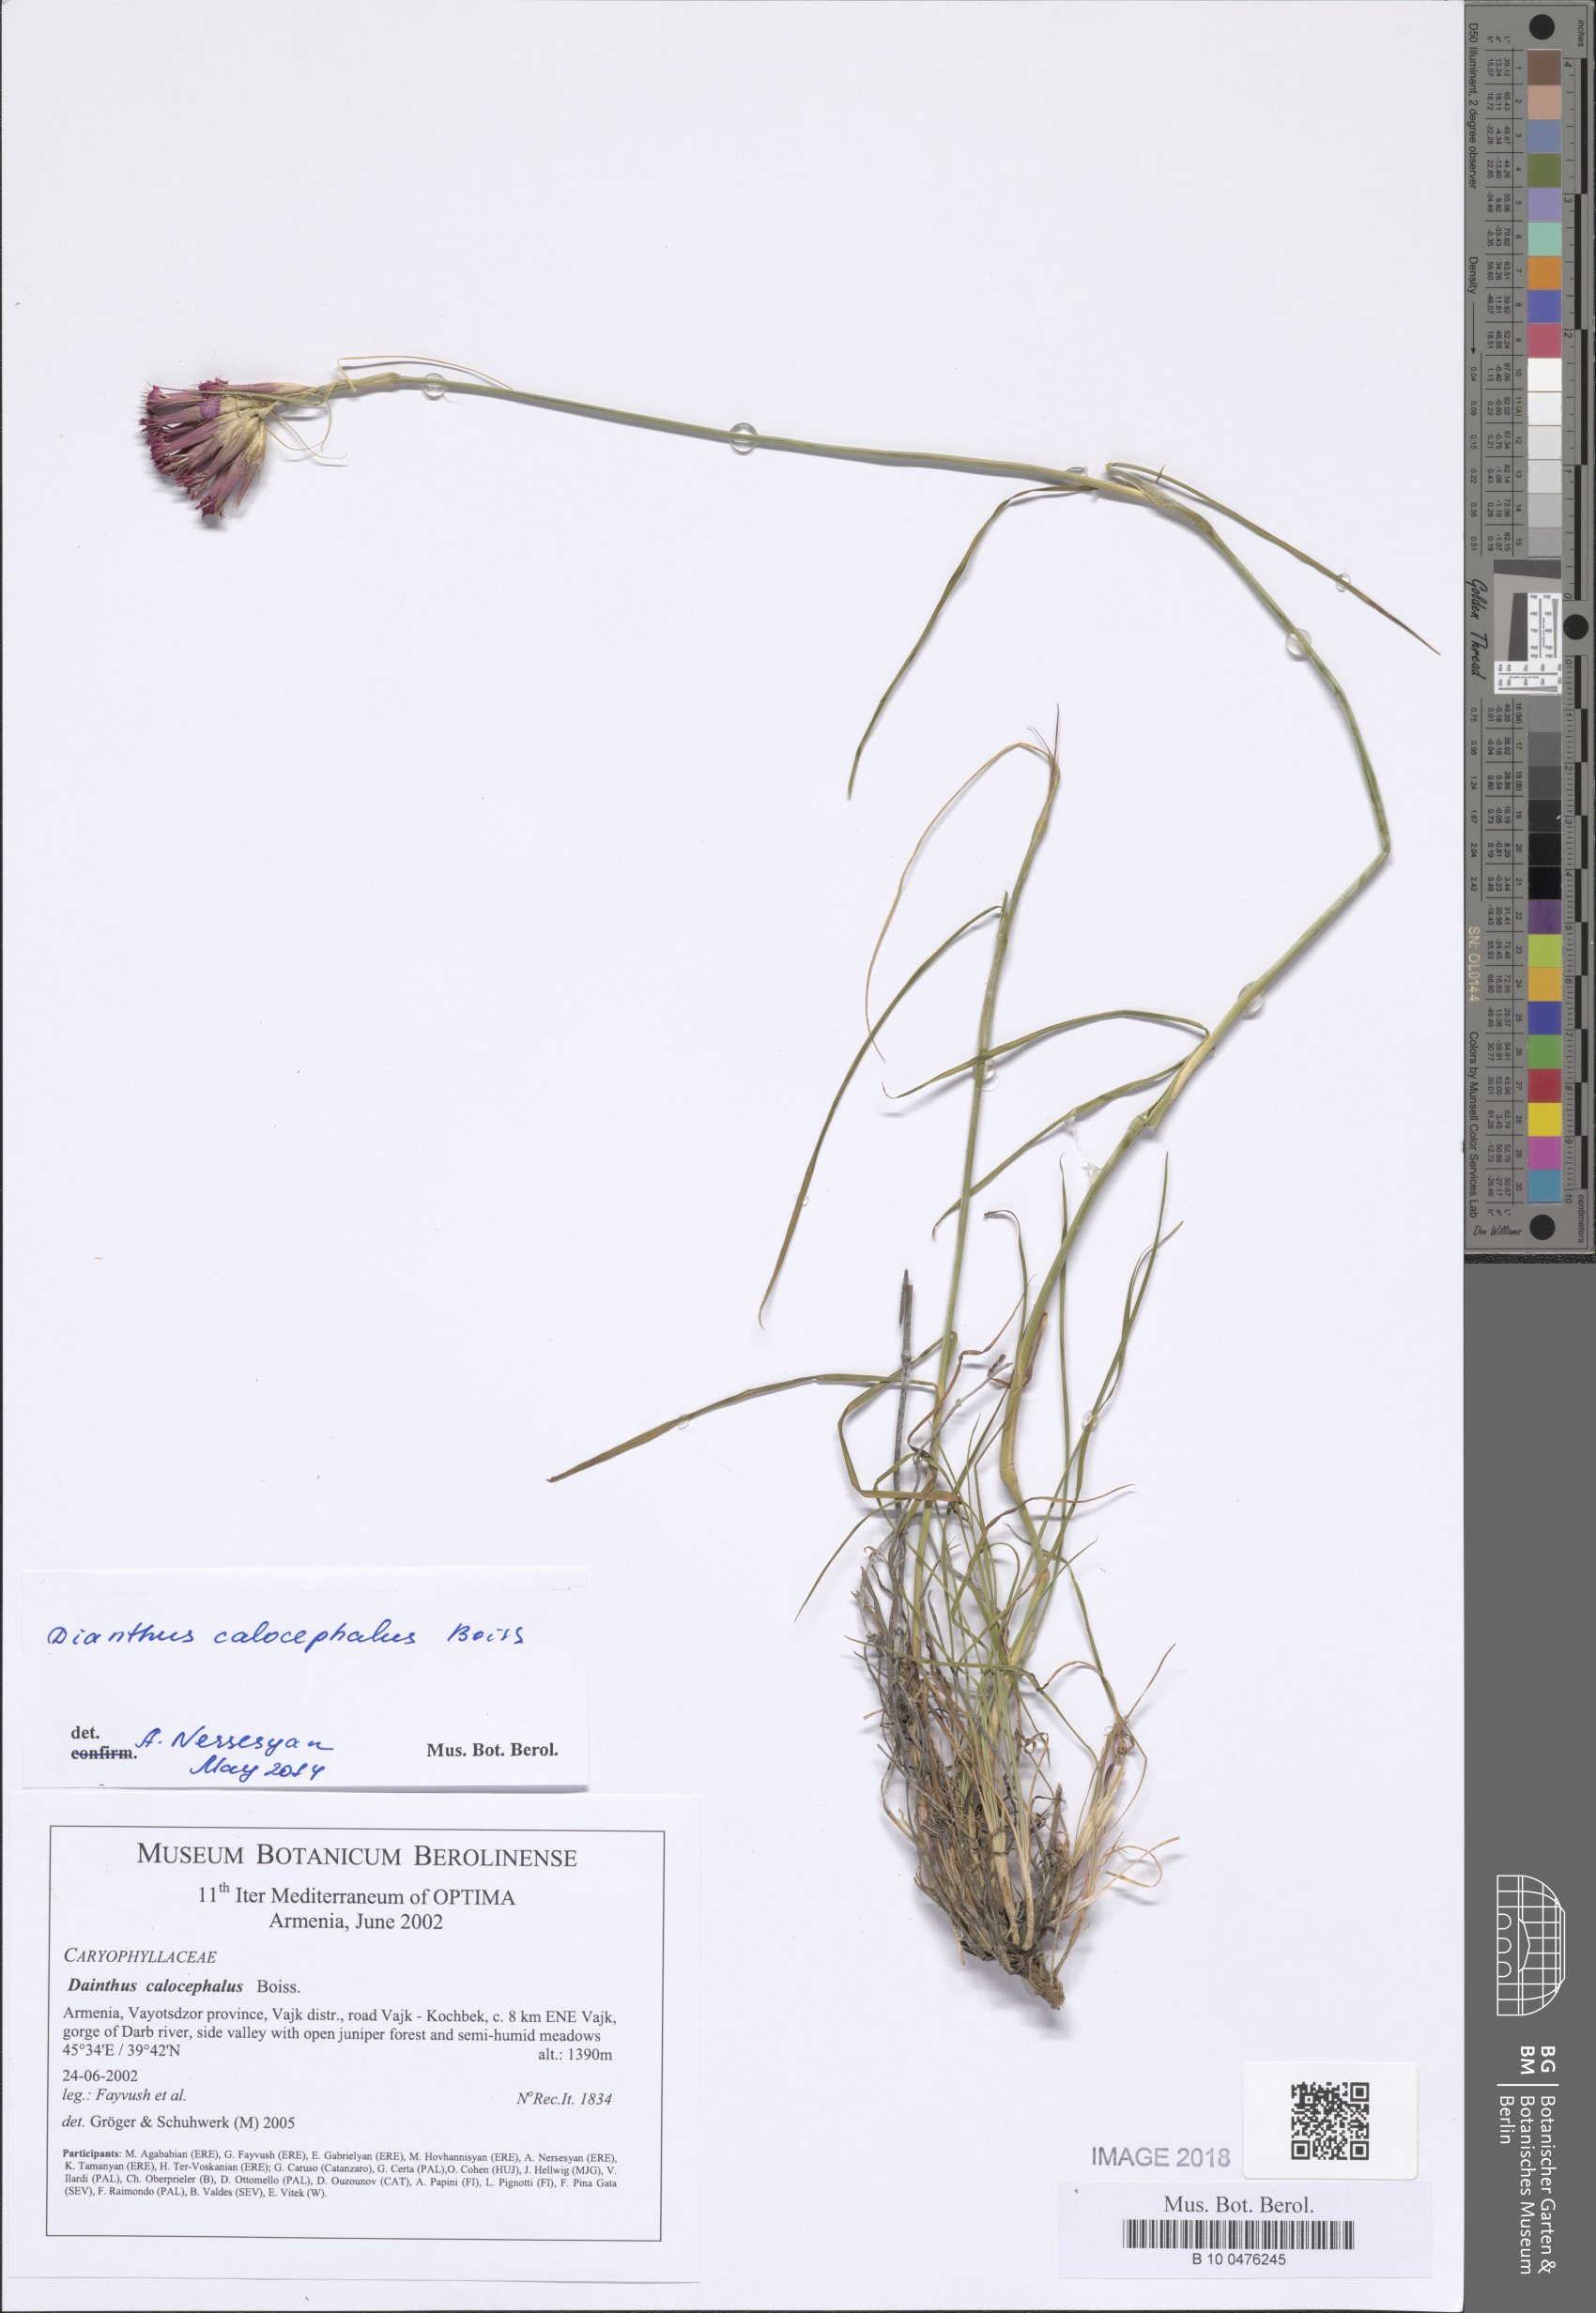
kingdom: Plantae
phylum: Tracheophyta
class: Magnoliopsida
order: Caryophyllales
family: Caryophyllaceae
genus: Dianthus
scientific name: Dianthus cruentus
